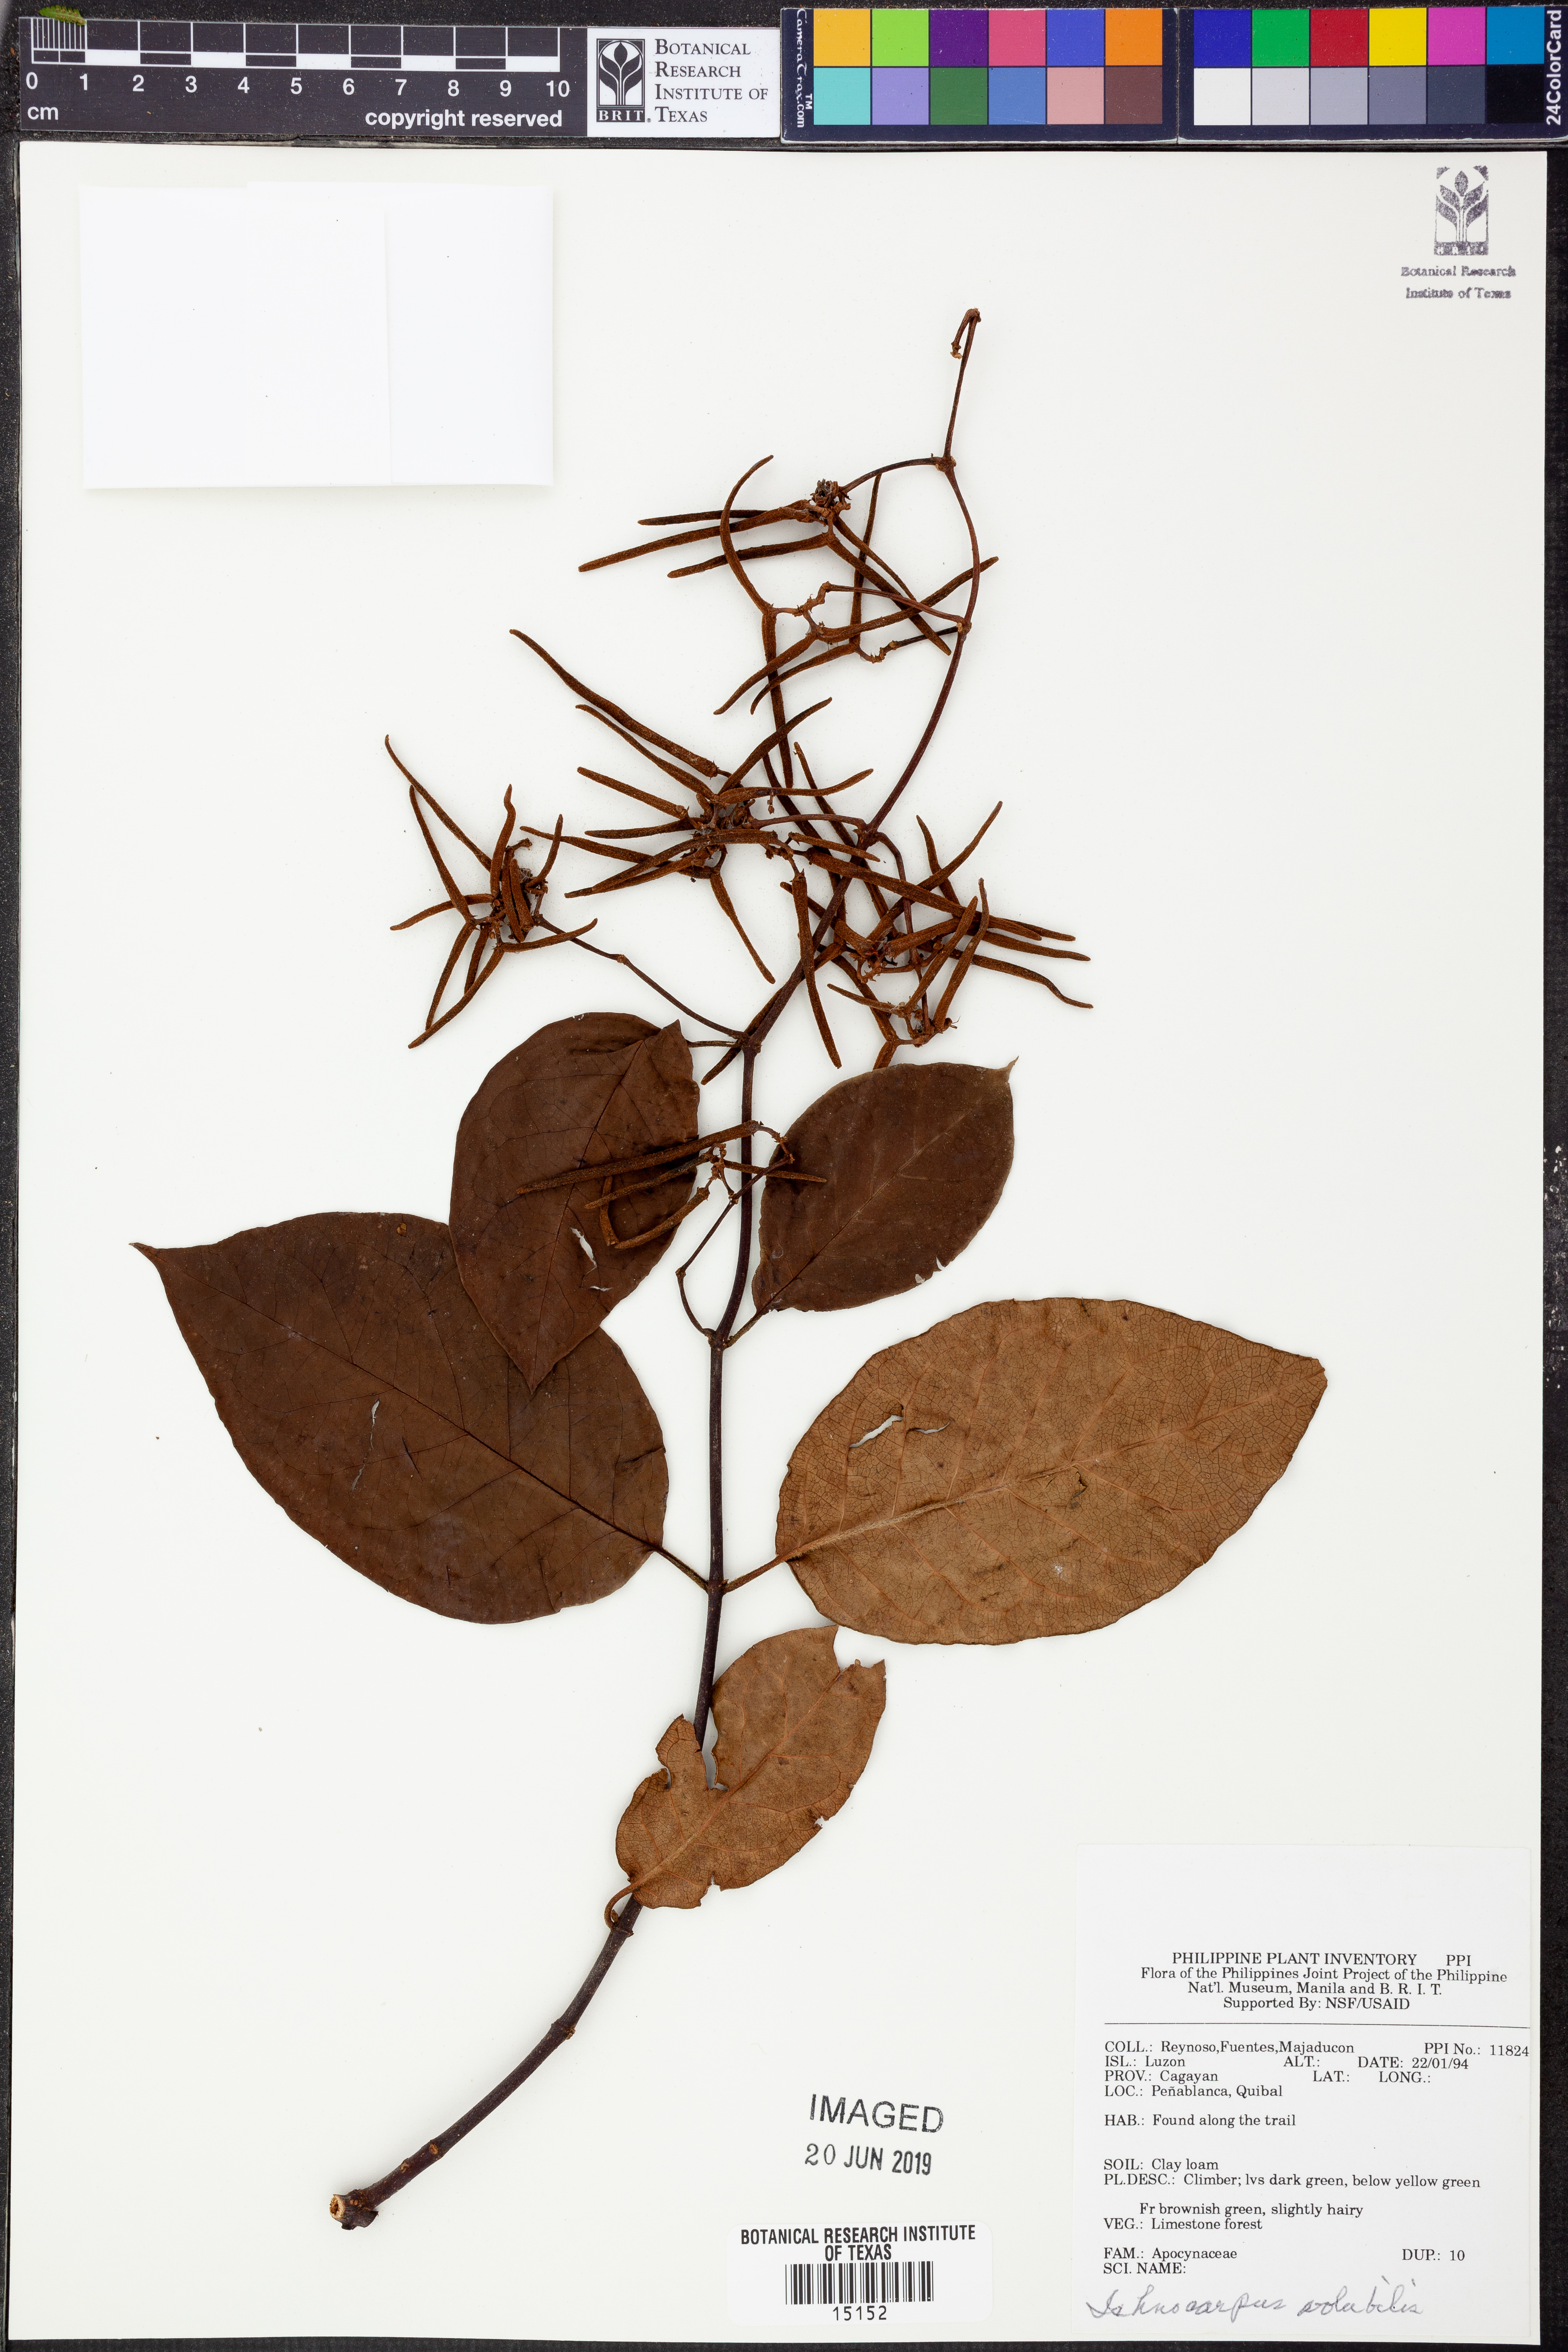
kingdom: Plantae
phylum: Tracheophyta
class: Magnoliopsida
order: Gentianales
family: Apocynaceae
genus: Ichnocarpus
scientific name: Ichnocarpus frutescens
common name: Ichnocarpus
